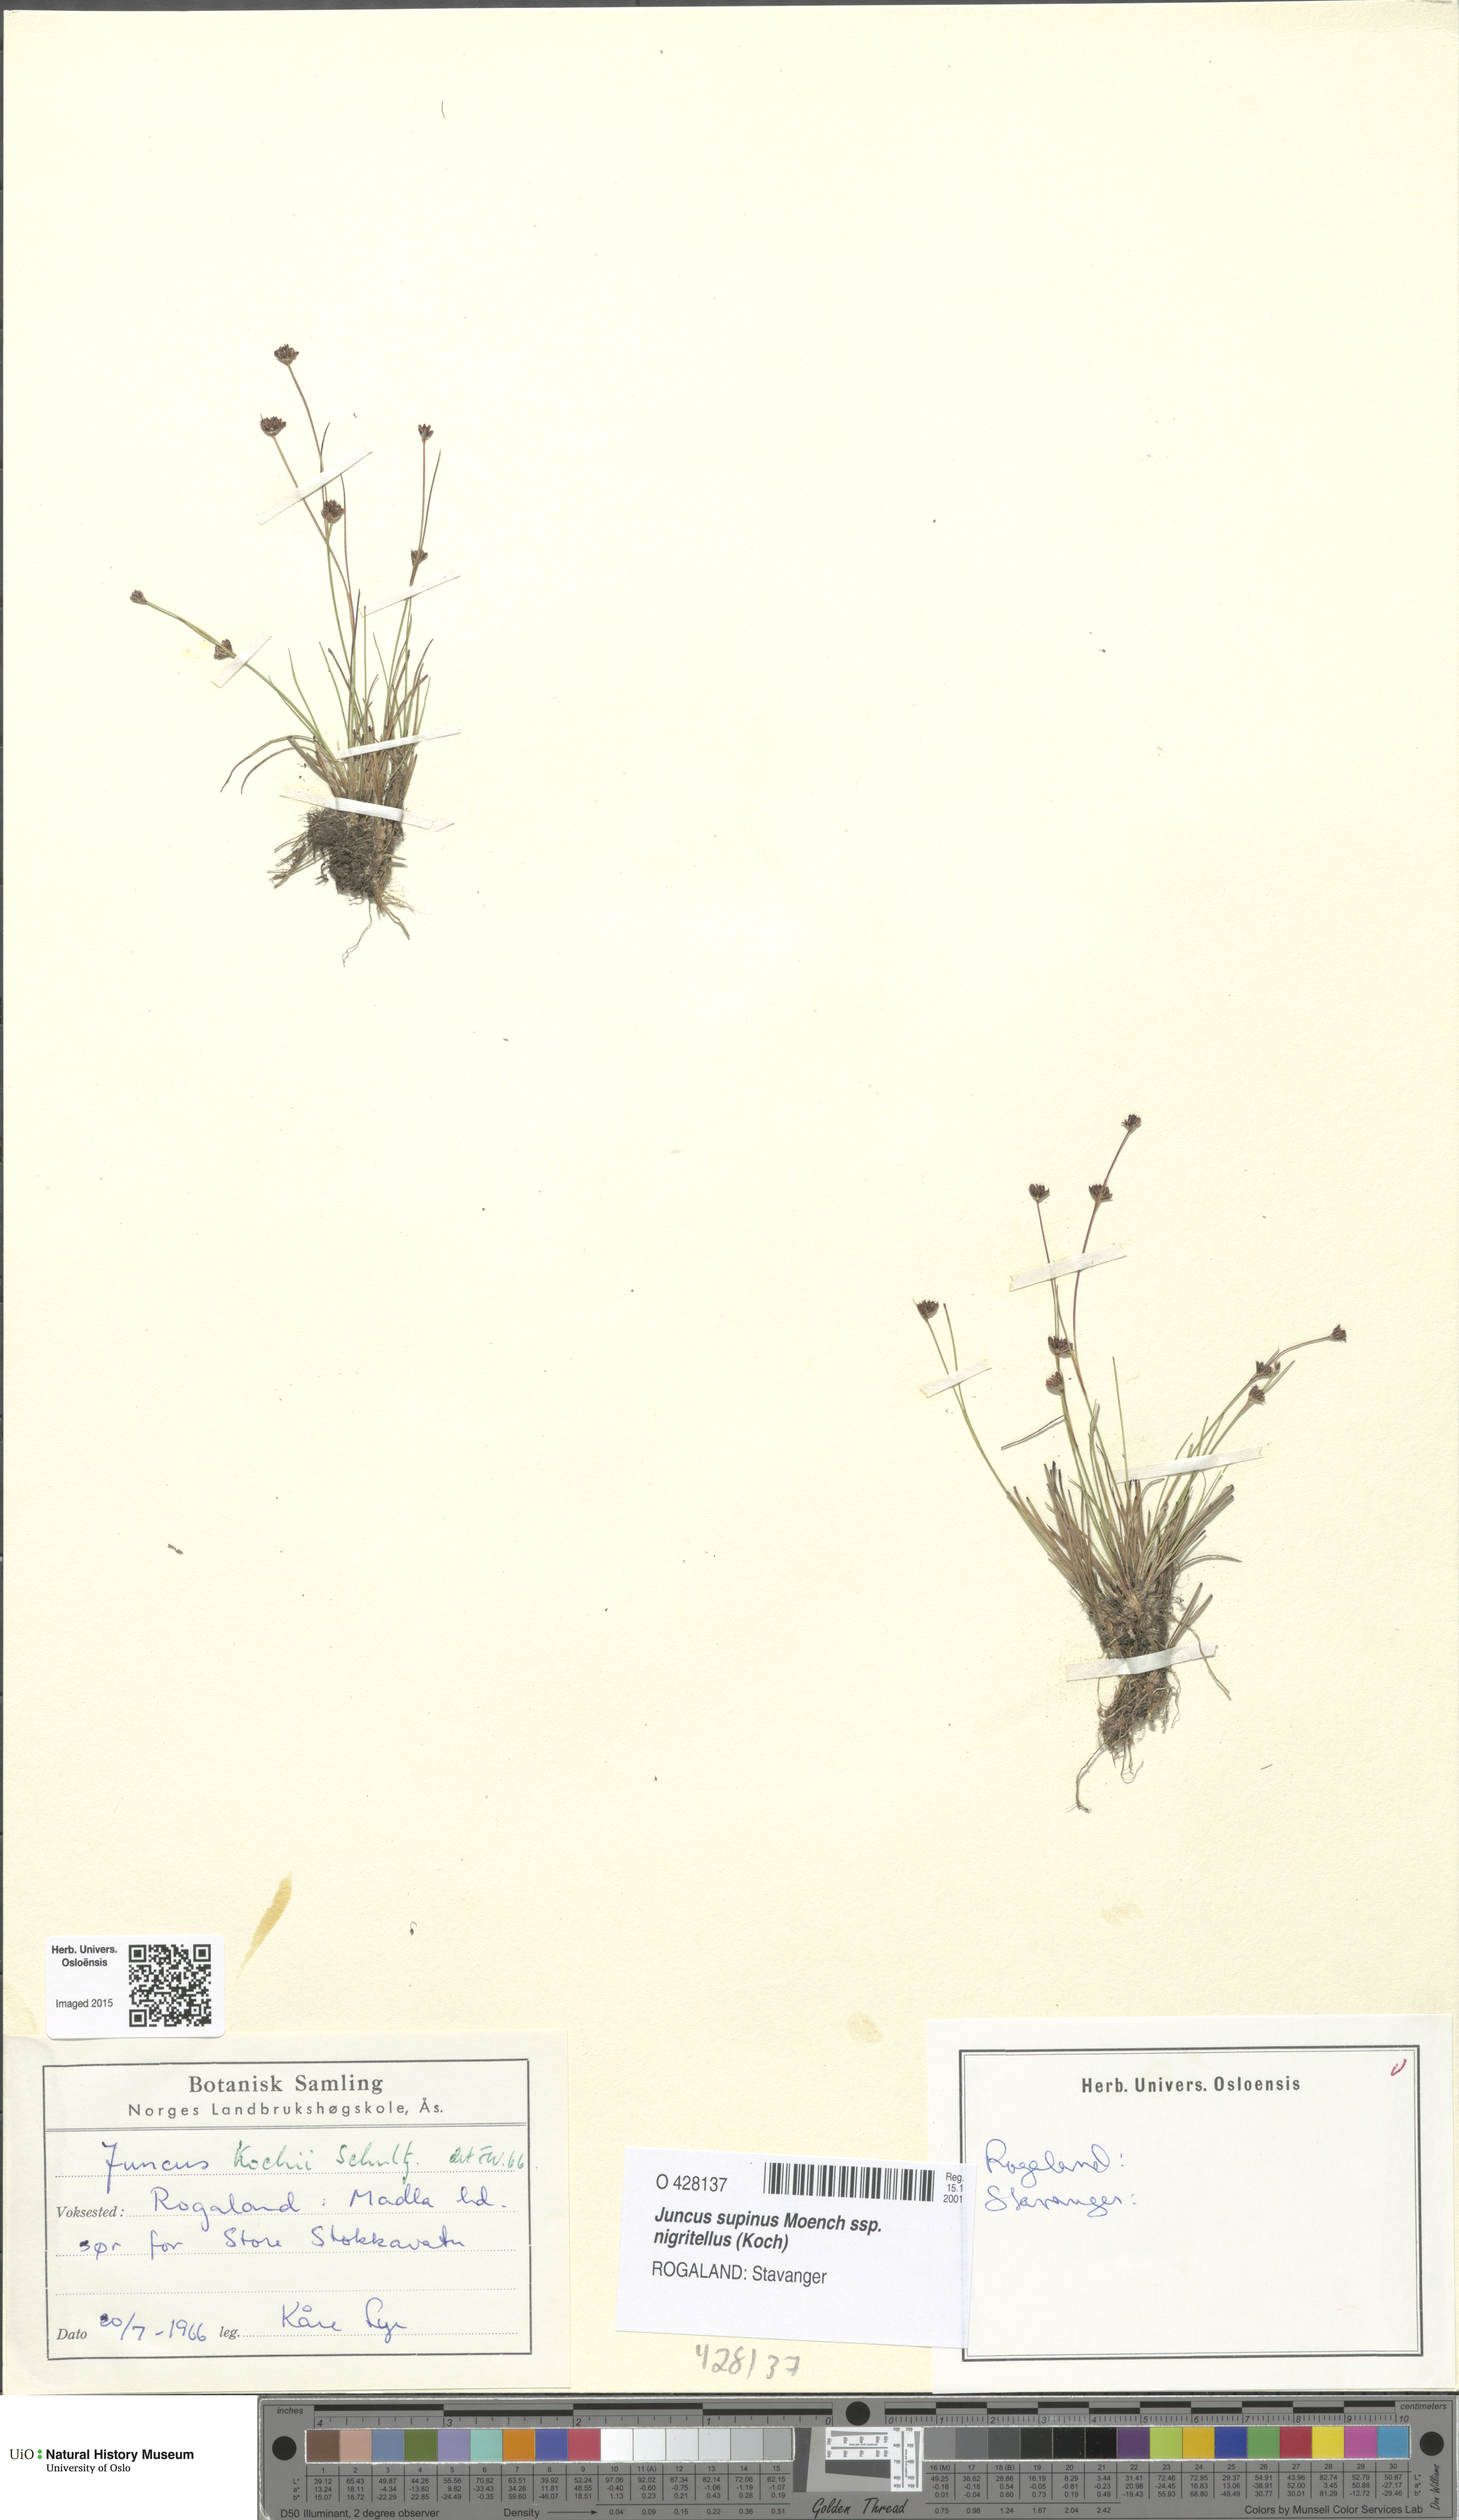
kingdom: Plantae
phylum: Tracheophyta
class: Liliopsida
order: Poales
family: Juncaceae
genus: Juncus
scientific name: Juncus bulbosus
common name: Bulbous rush
